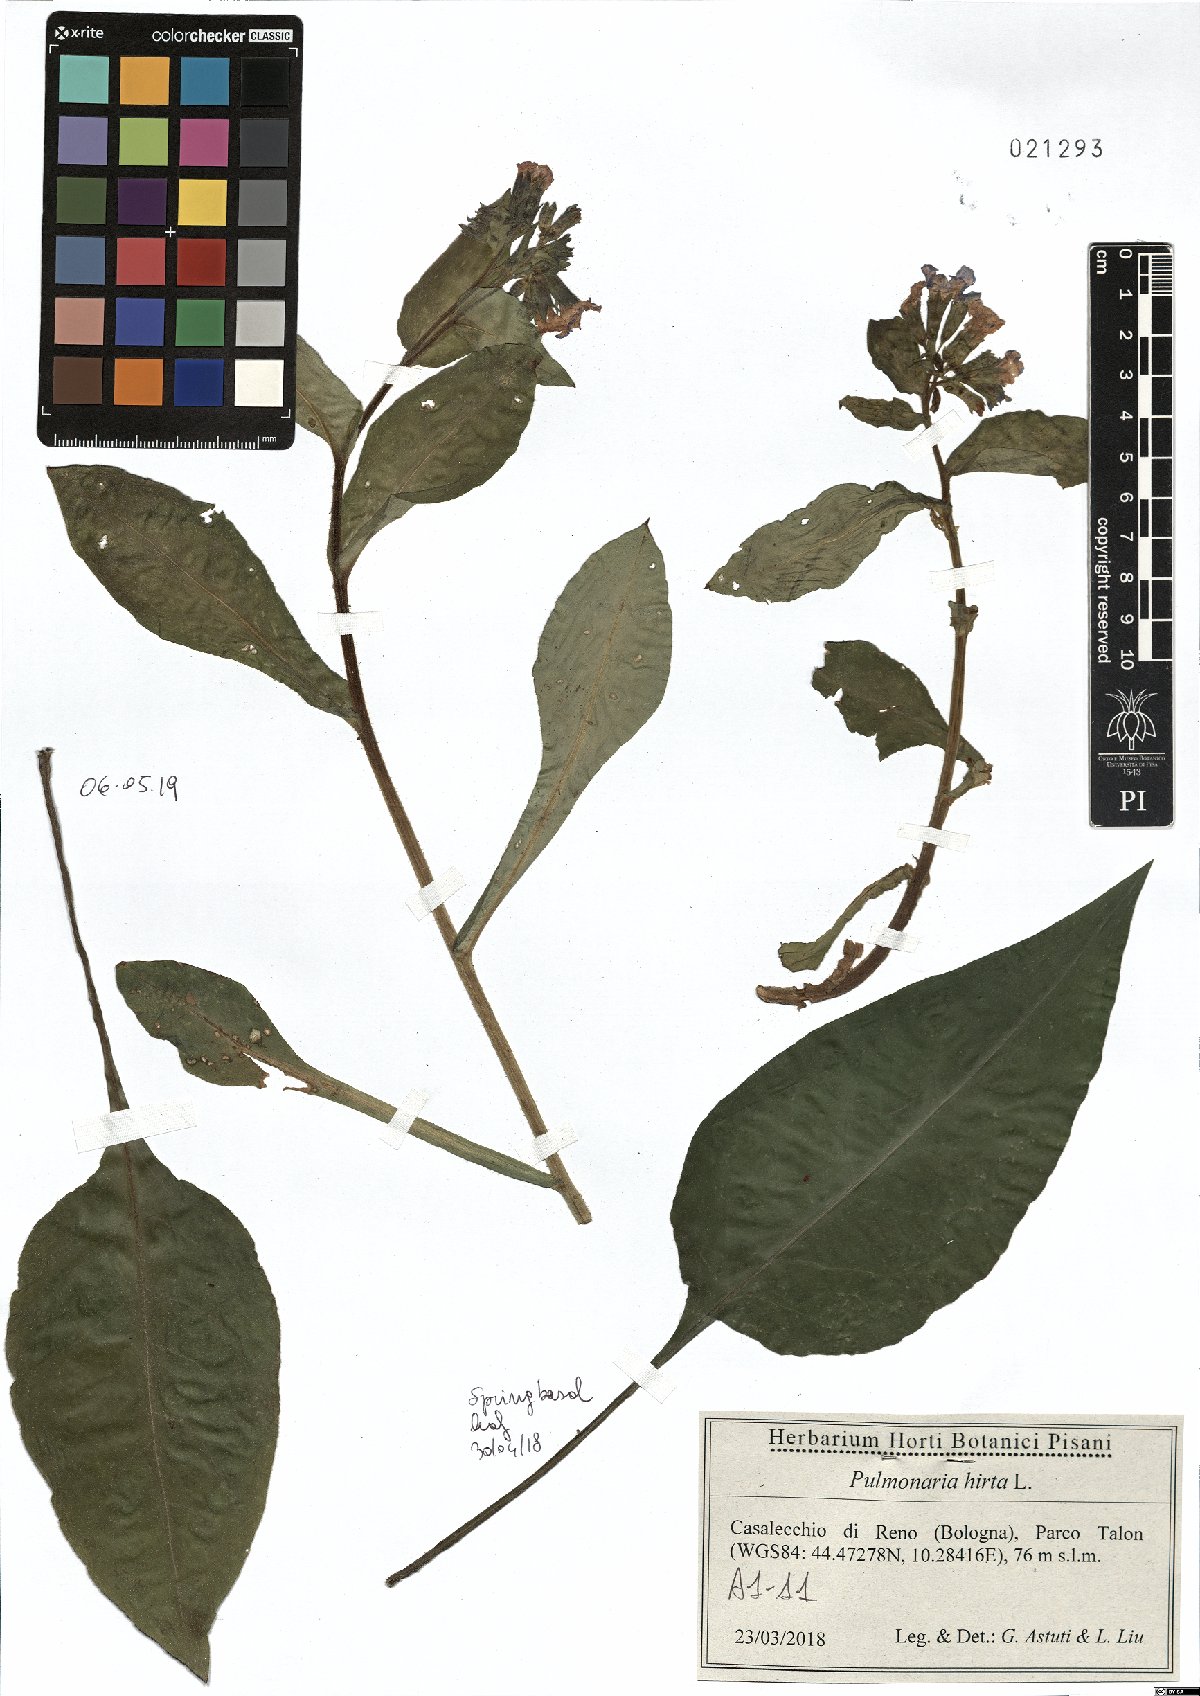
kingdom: Plantae
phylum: Tracheophyta
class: Magnoliopsida
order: Boraginales
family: Boraginaceae
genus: Pulmonaria
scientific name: Pulmonaria hirta
